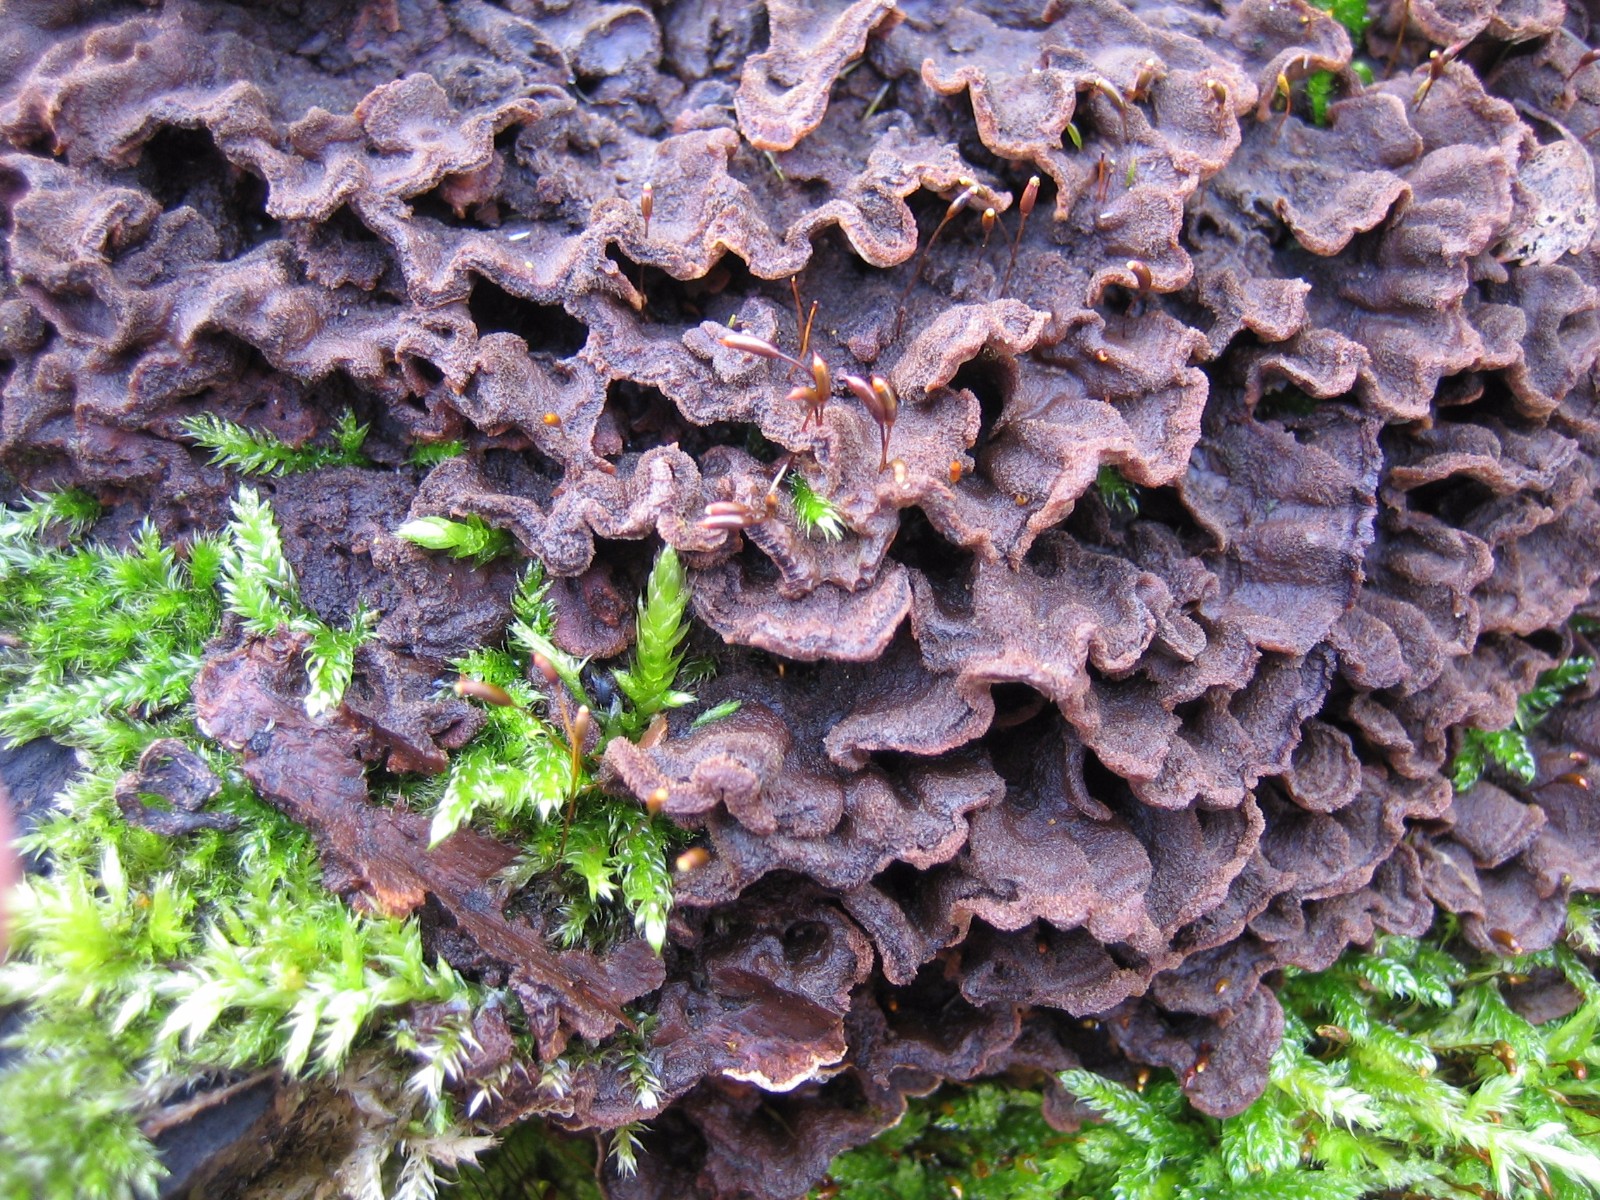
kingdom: Fungi
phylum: Basidiomycota
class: Agaricomycetes
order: Agaricales
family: Cyphellaceae
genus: Chondrostereum
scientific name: Chondrostereum purpureum
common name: purpurlædersvamp
